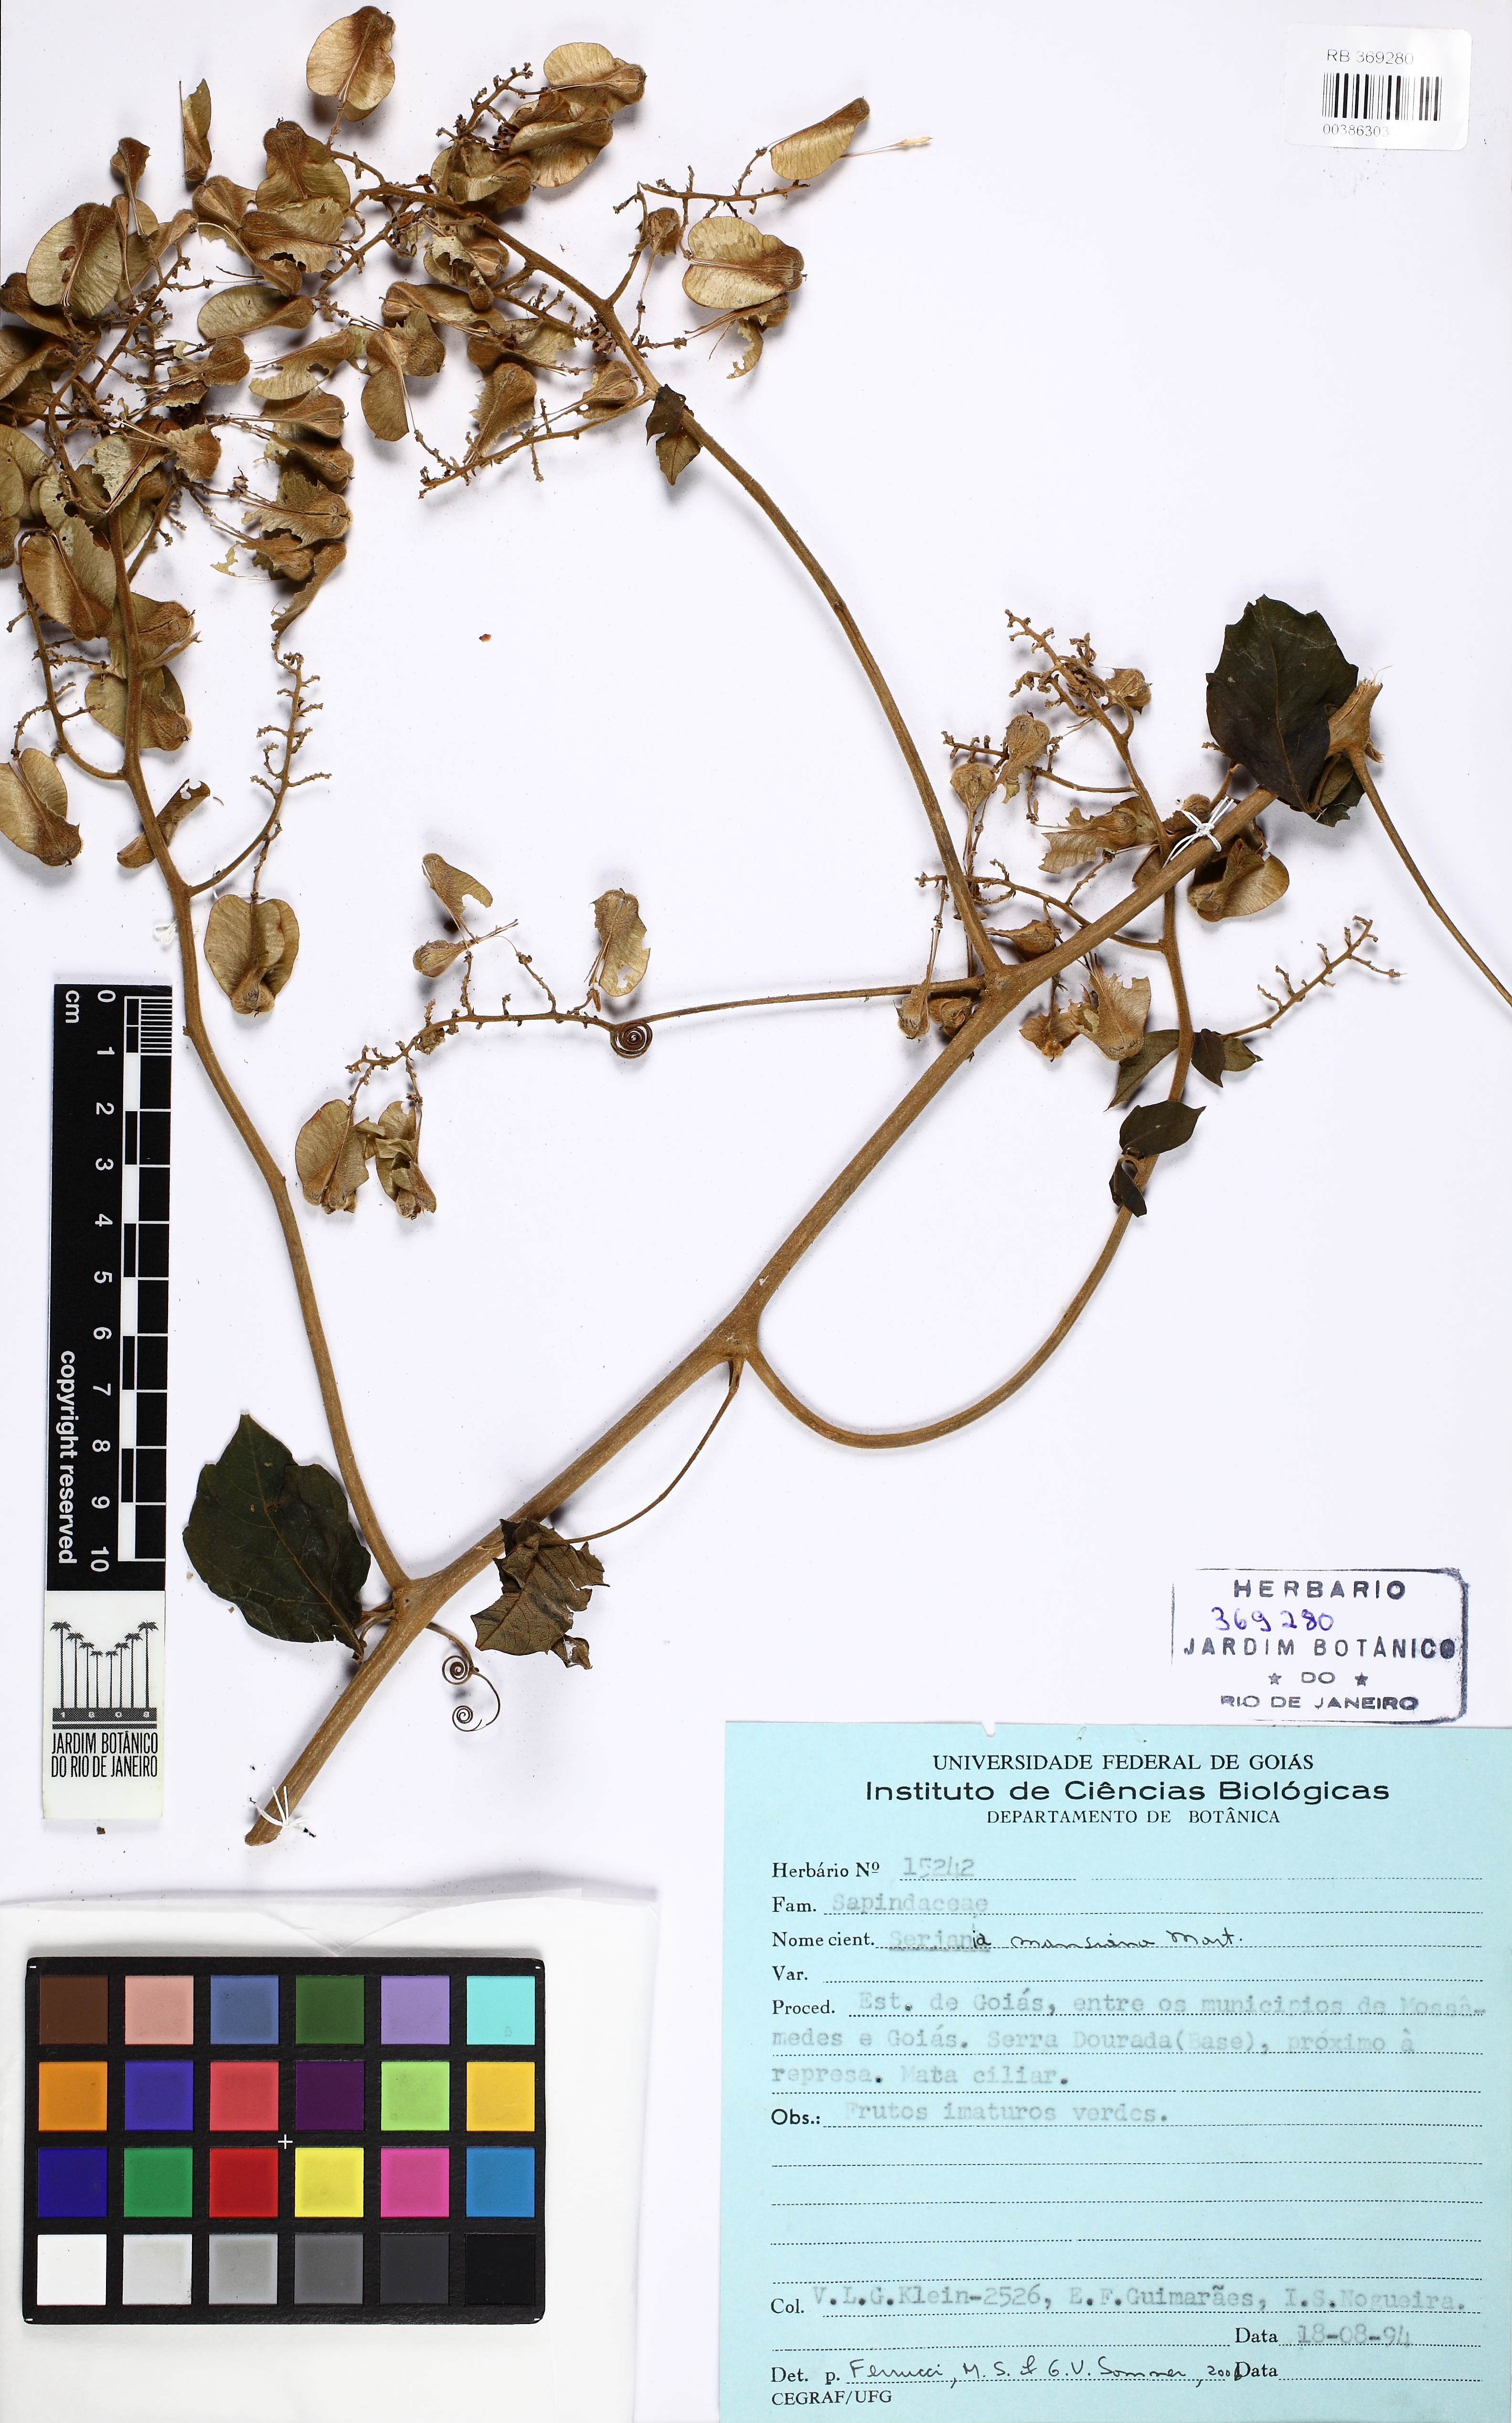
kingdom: Plantae
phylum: Tracheophyta
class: Magnoliopsida
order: Sapindales
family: Sapindaceae
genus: Serjania
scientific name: Serjania mansiana
